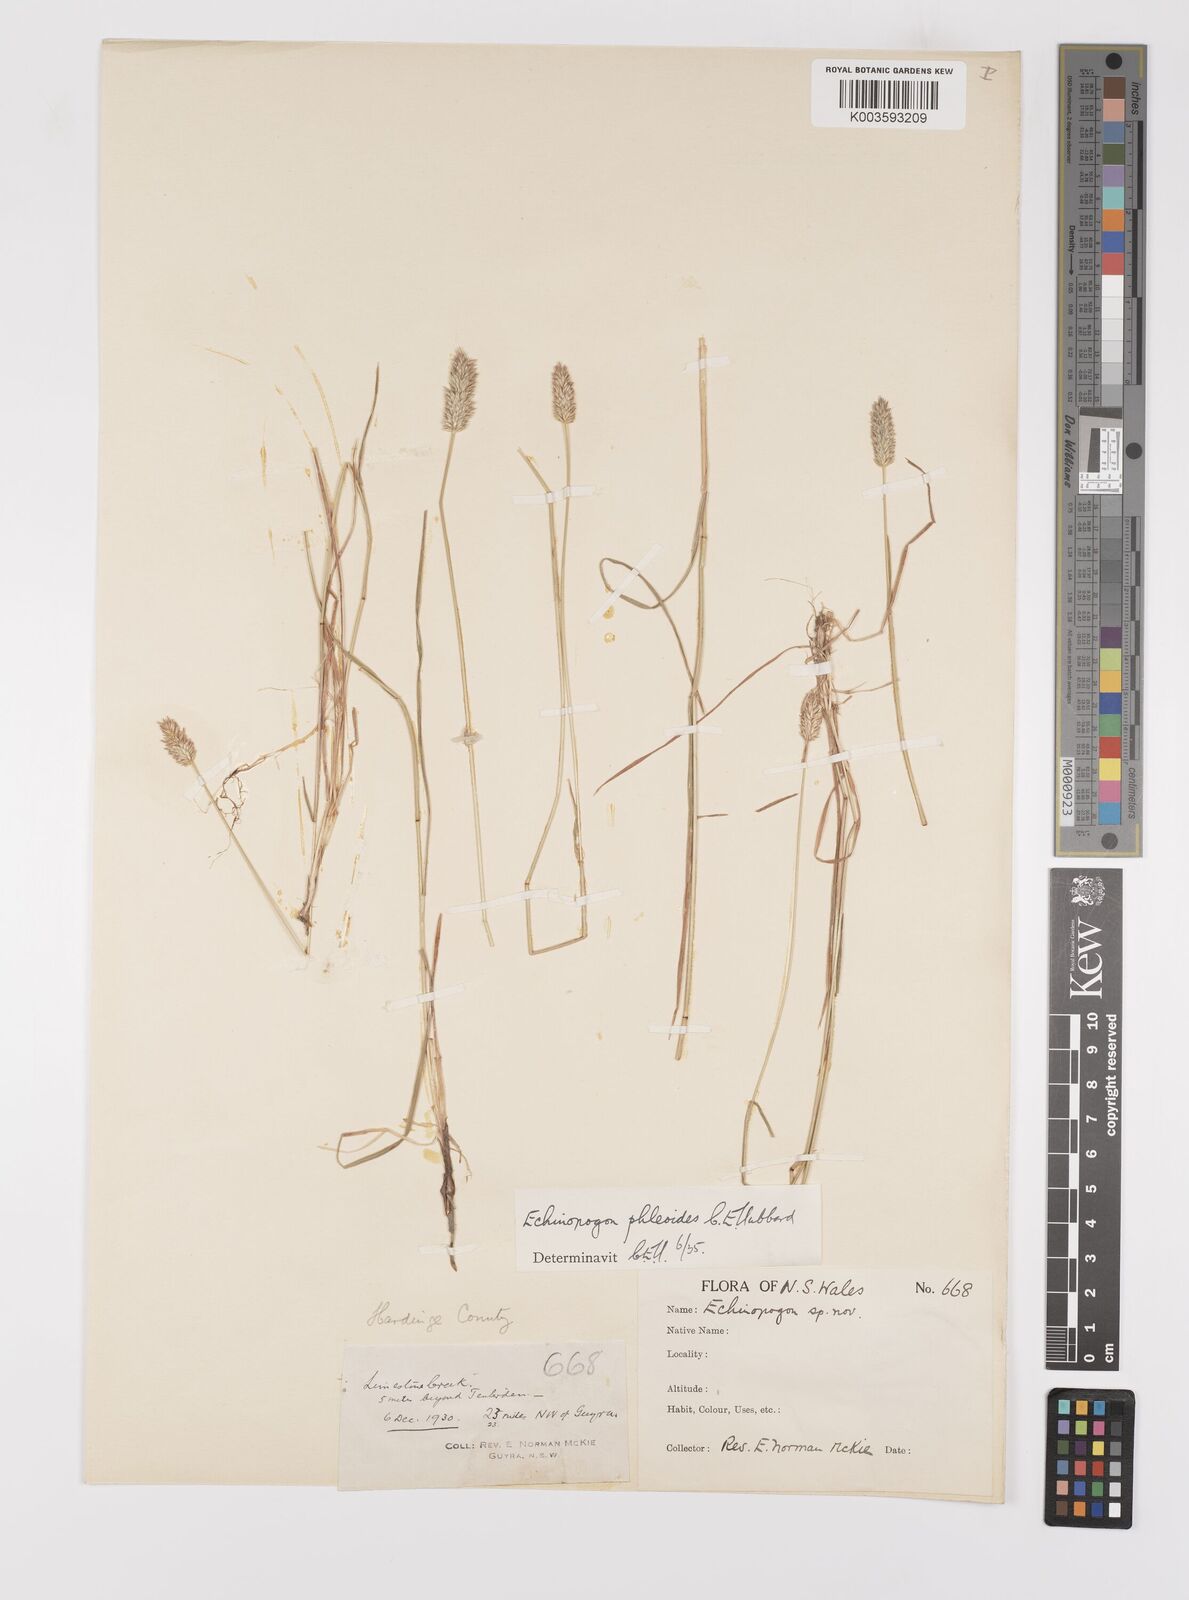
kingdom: Plantae
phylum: Tracheophyta
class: Liliopsida
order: Poales
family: Poaceae
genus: Echinopogon
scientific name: Echinopogon phleoides
